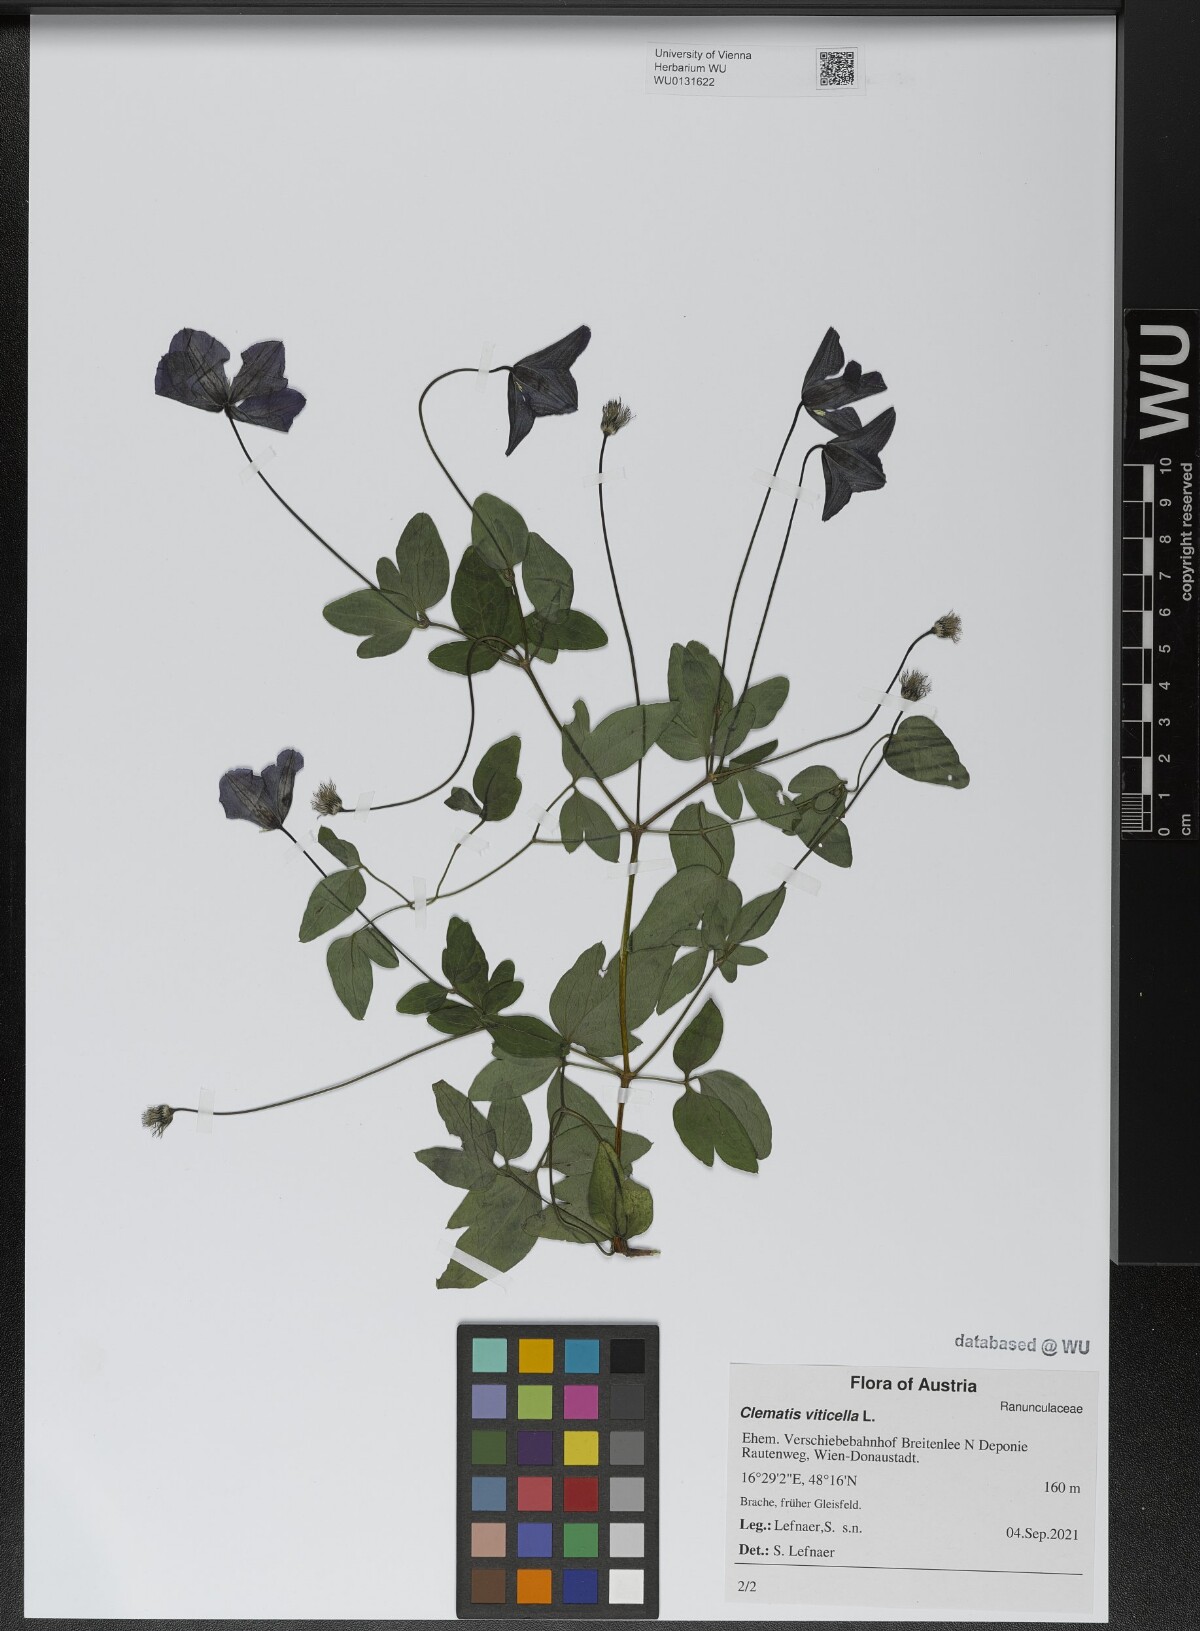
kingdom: Plantae
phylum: Tracheophyta
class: Magnoliopsida
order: Ranunculales
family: Ranunculaceae
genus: Clematis
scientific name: Clematis viticella
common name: Purple clematis
